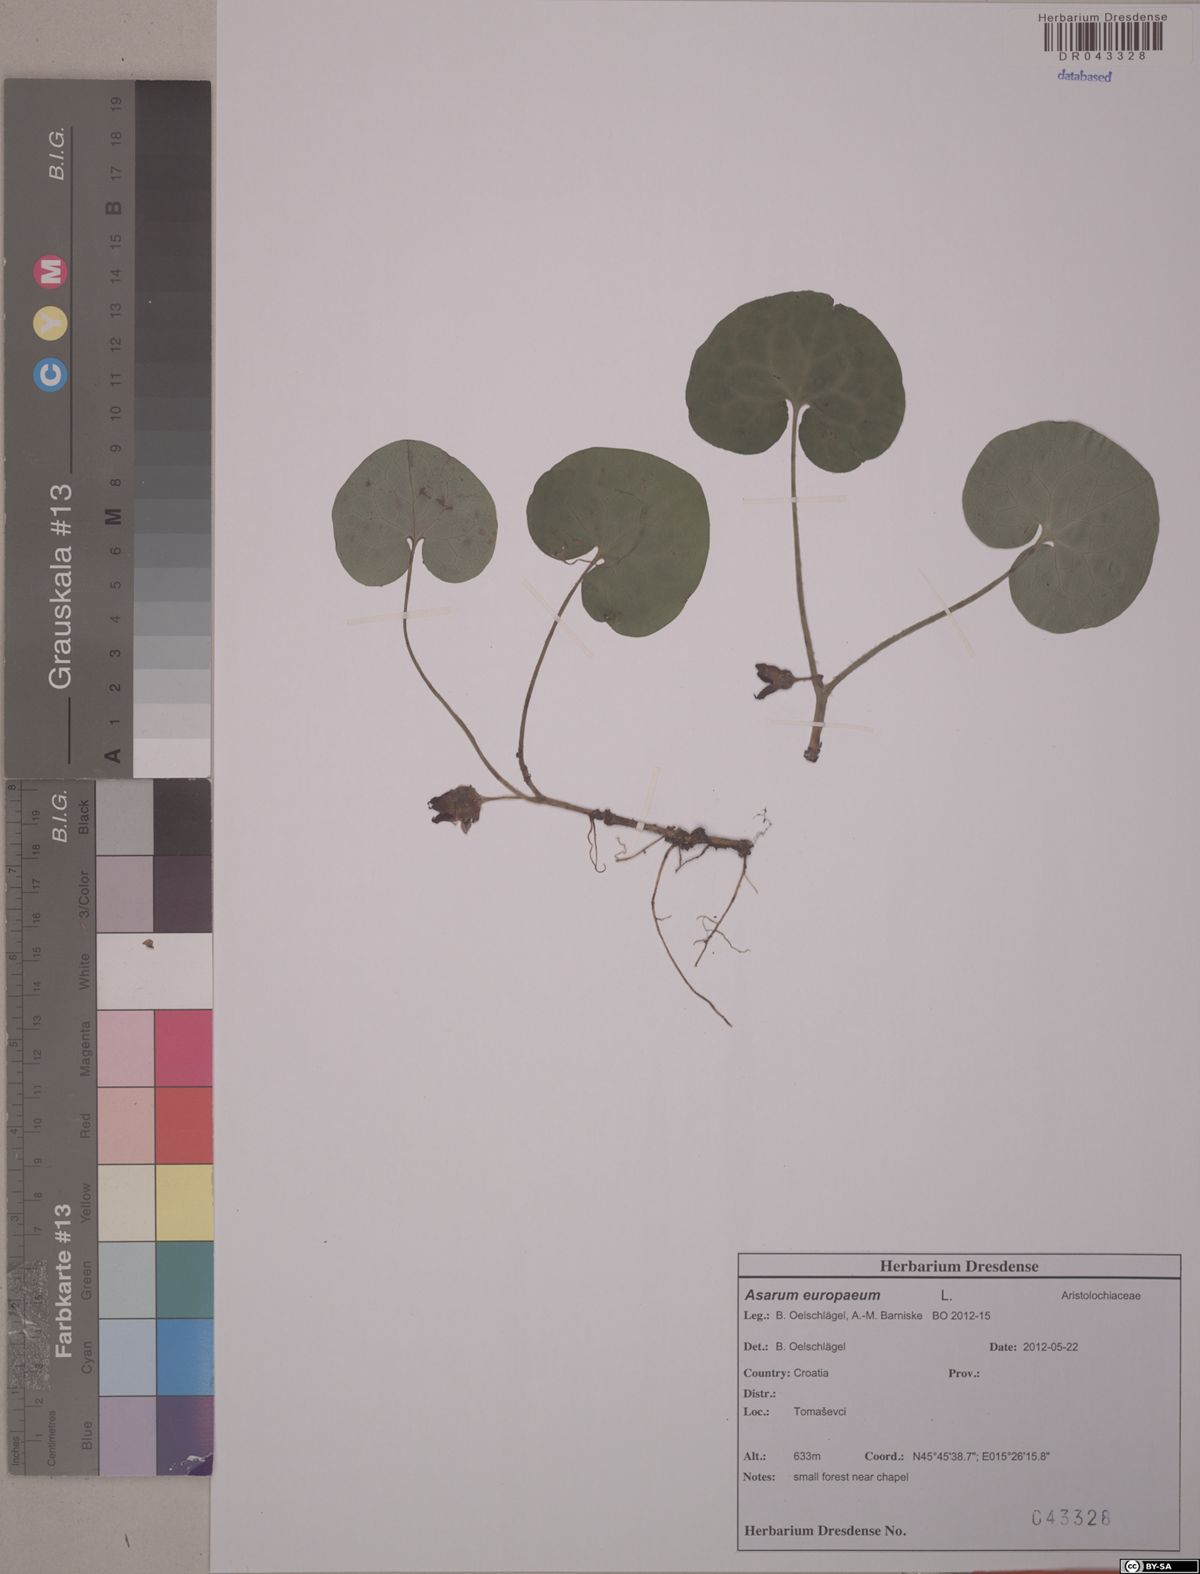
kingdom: Plantae
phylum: Tracheophyta
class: Magnoliopsida
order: Piperales
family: Aristolochiaceae
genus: Asarum
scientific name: Asarum europaeum
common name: Asarabacca
